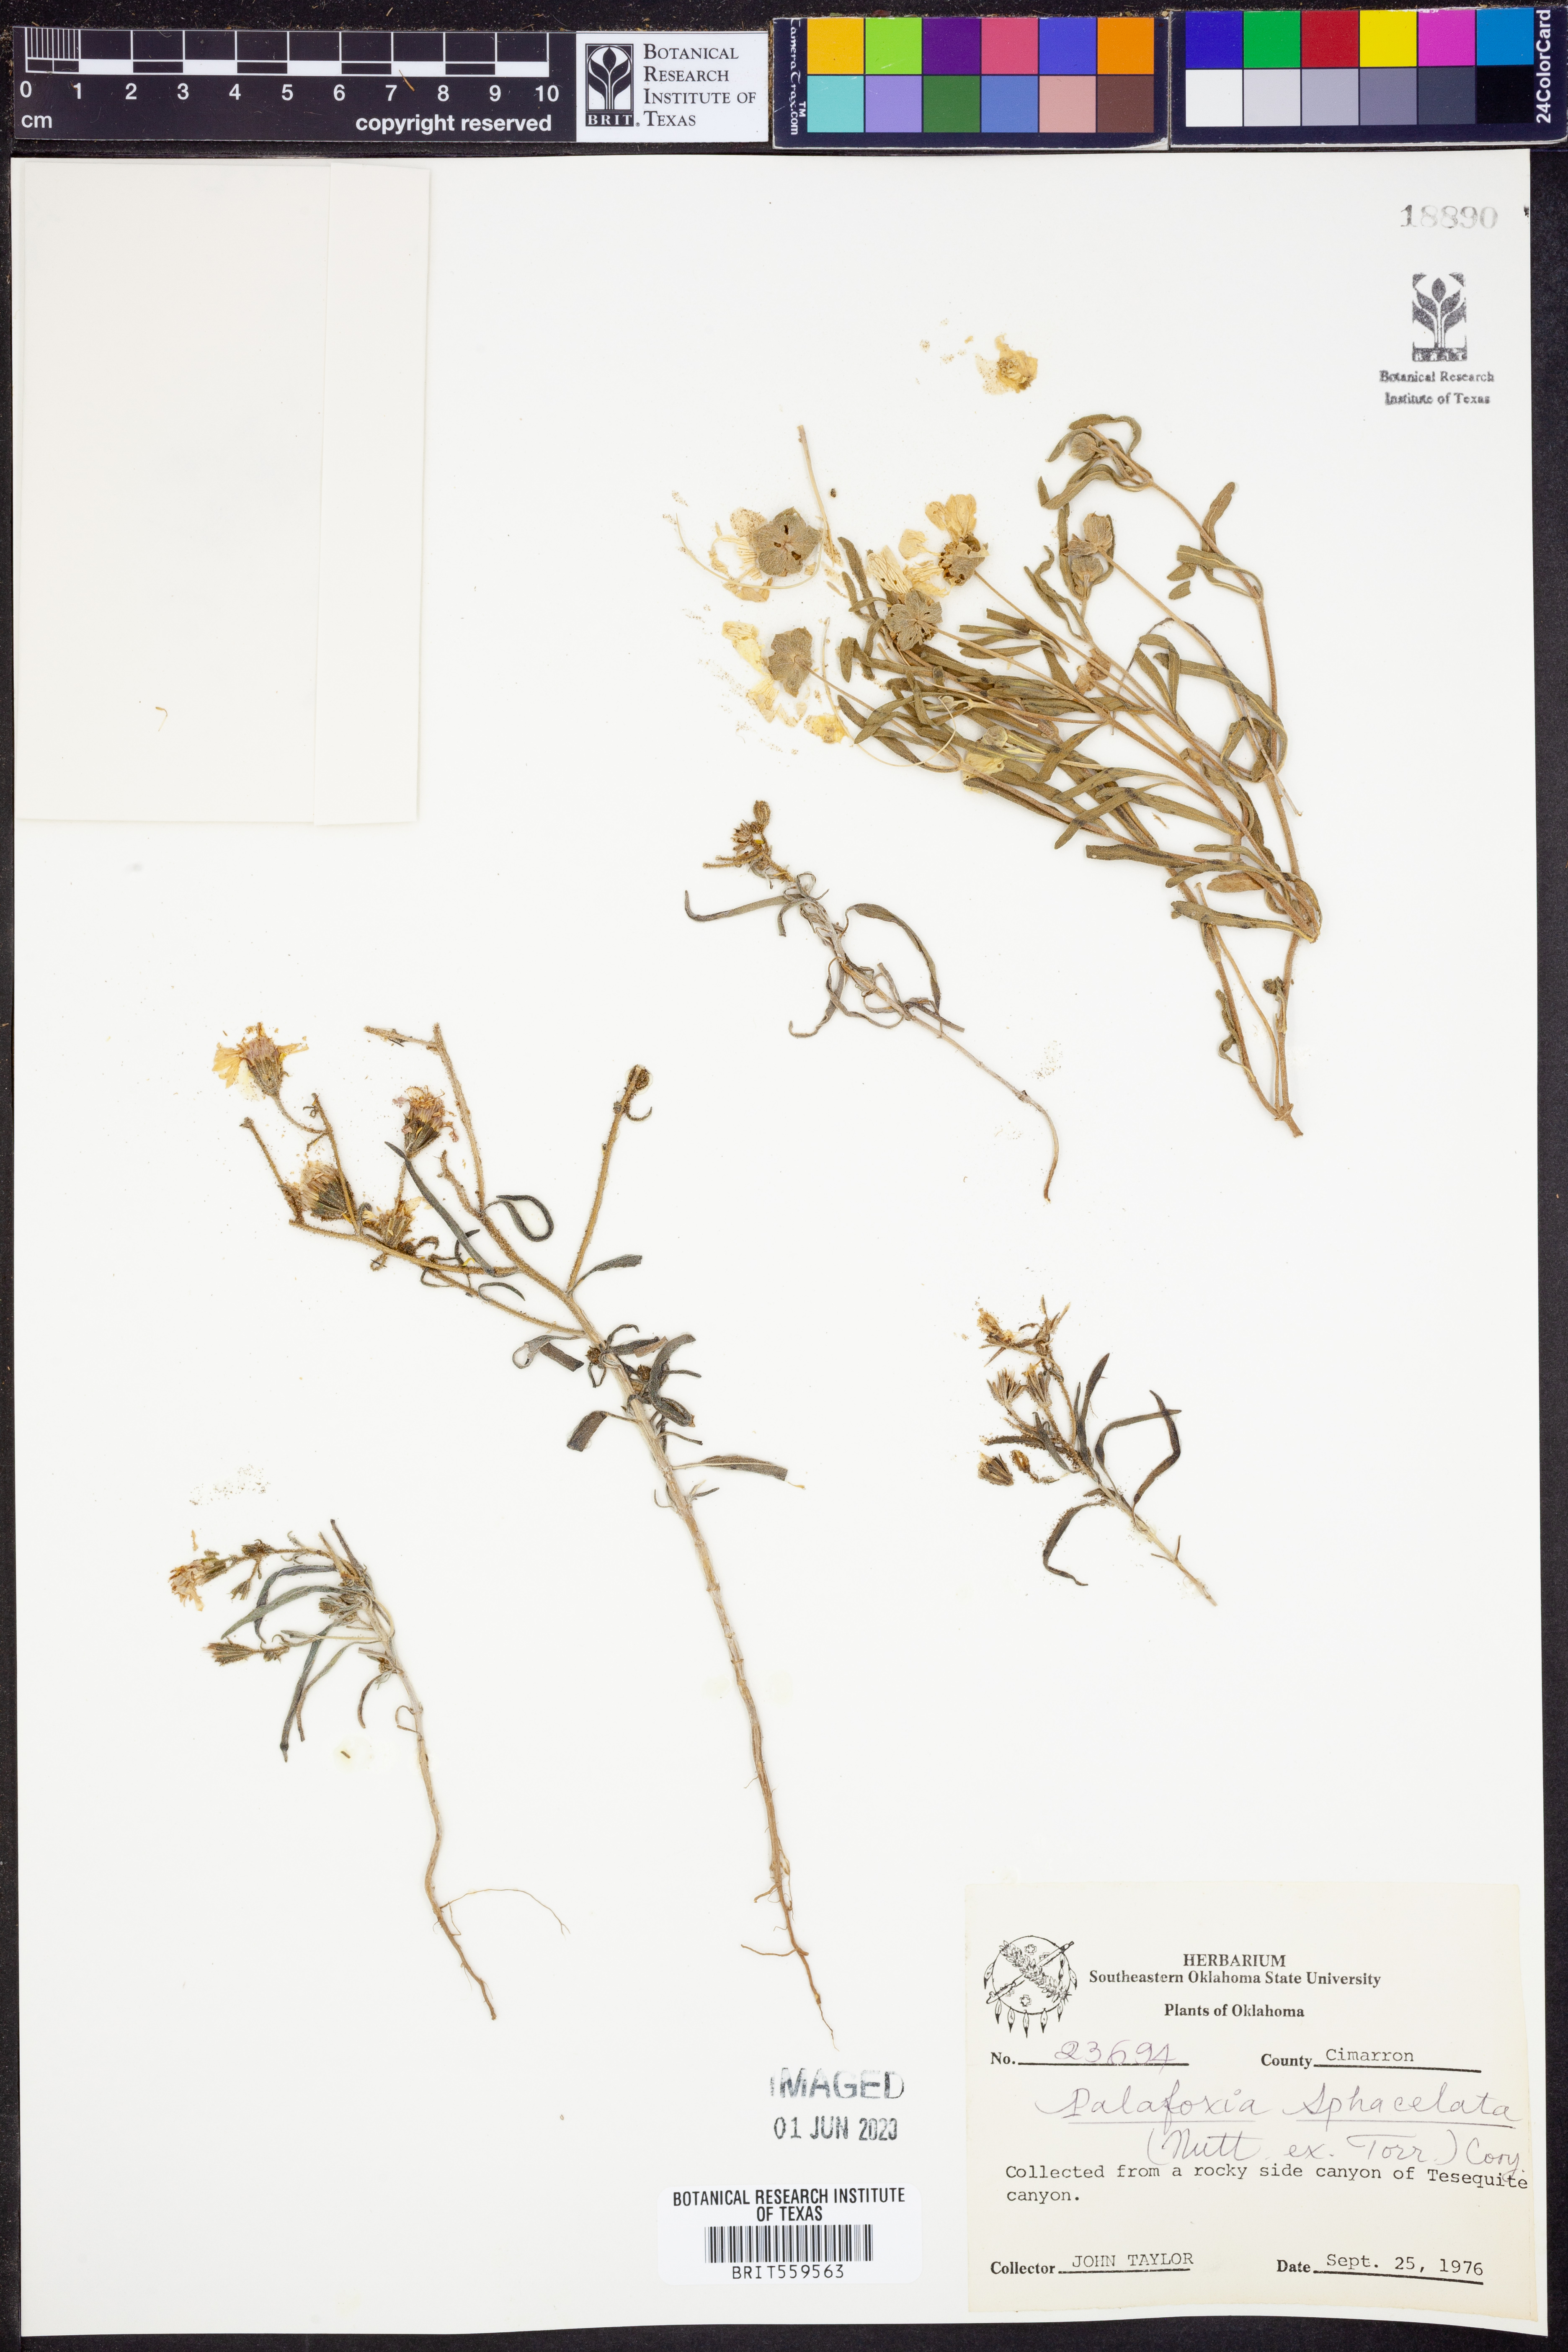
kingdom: Plantae
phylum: Tracheophyta
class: Magnoliopsida
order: Asterales
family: Asteraceae
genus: Palafoxia
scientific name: Palafoxia sphacelata
